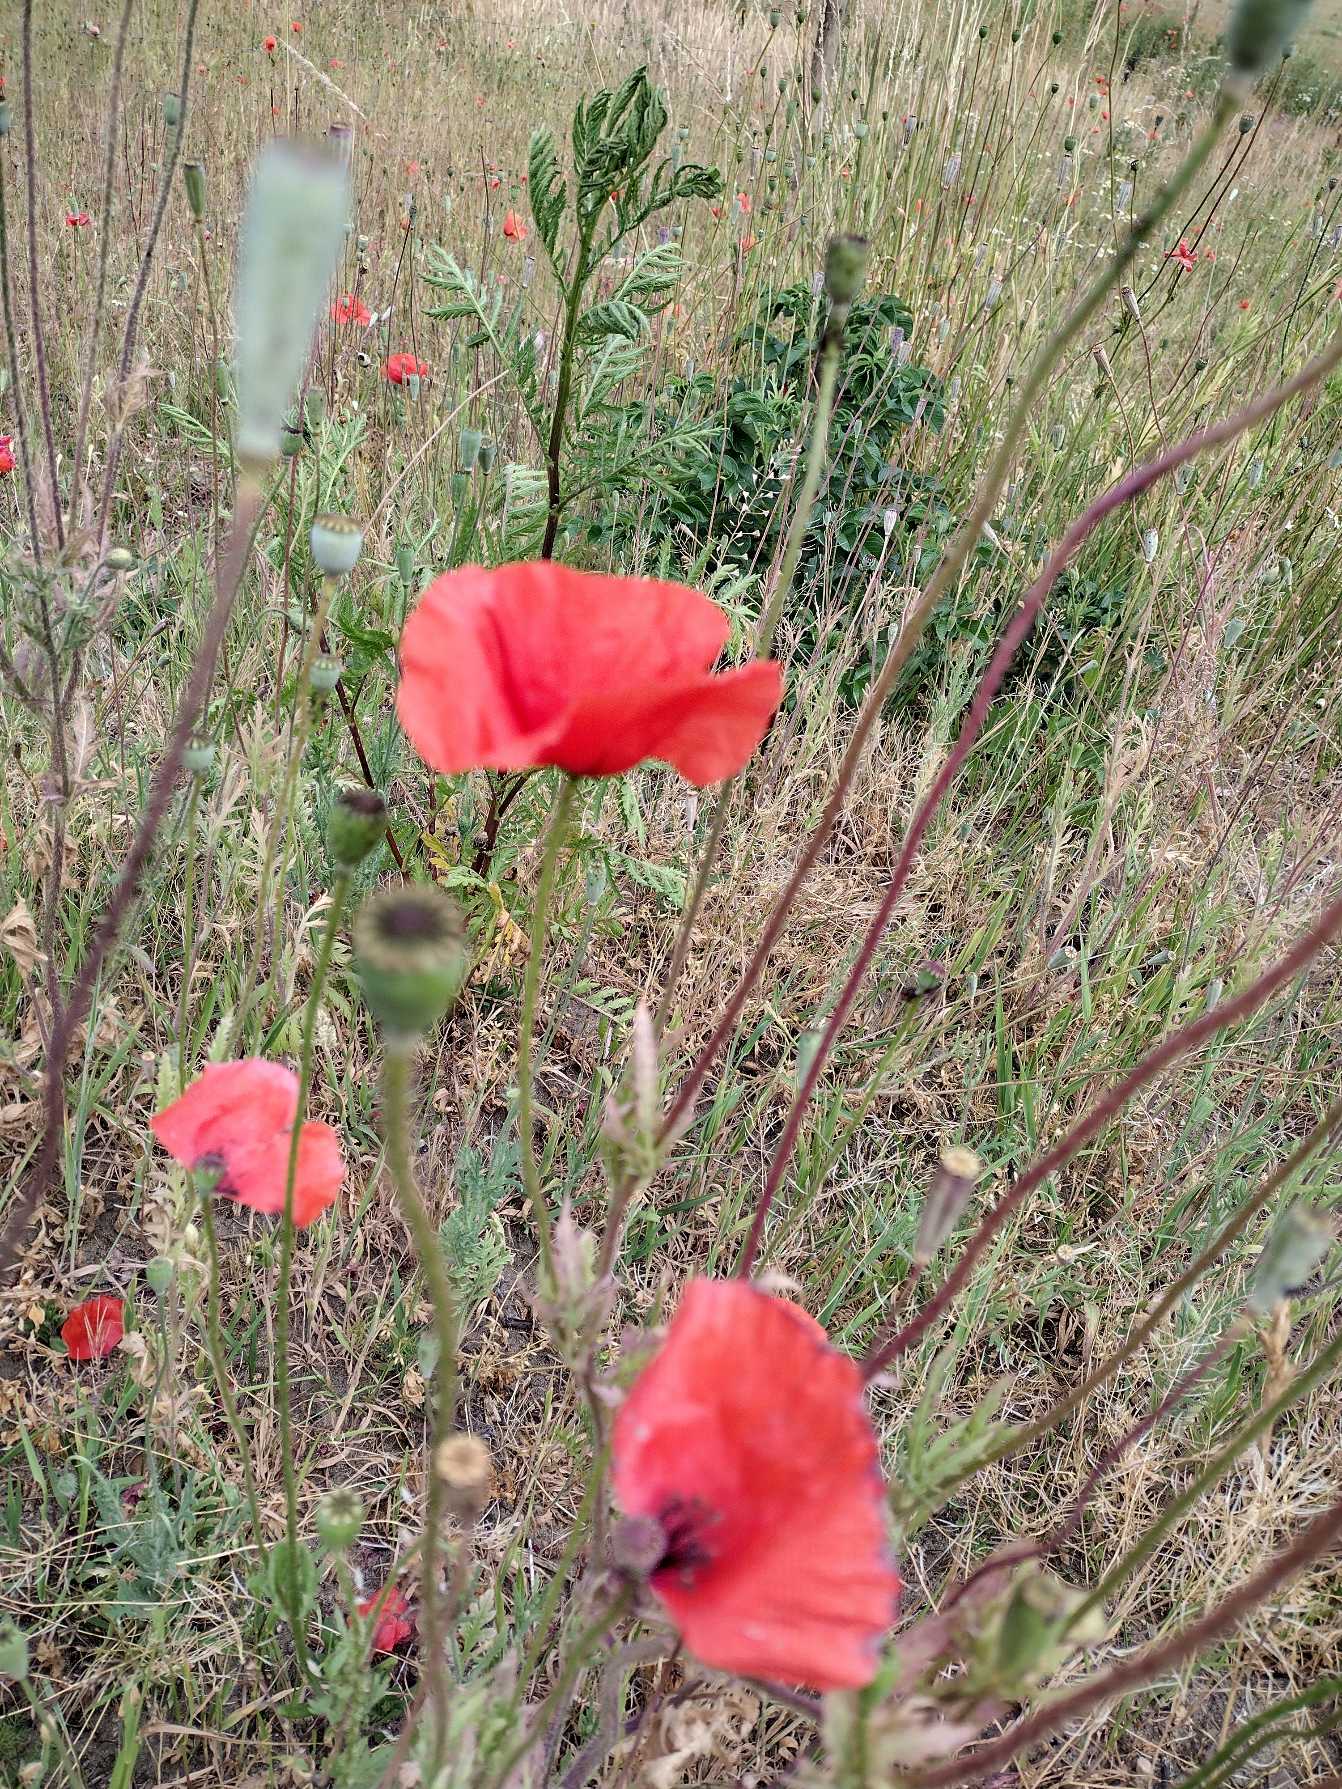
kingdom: Plantae
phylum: Tracheophyta
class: Magnoliopsida
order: Ranunculales
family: Papaveraceae
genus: Papaver
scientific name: Papaver rhoeas
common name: Korn-valmue
